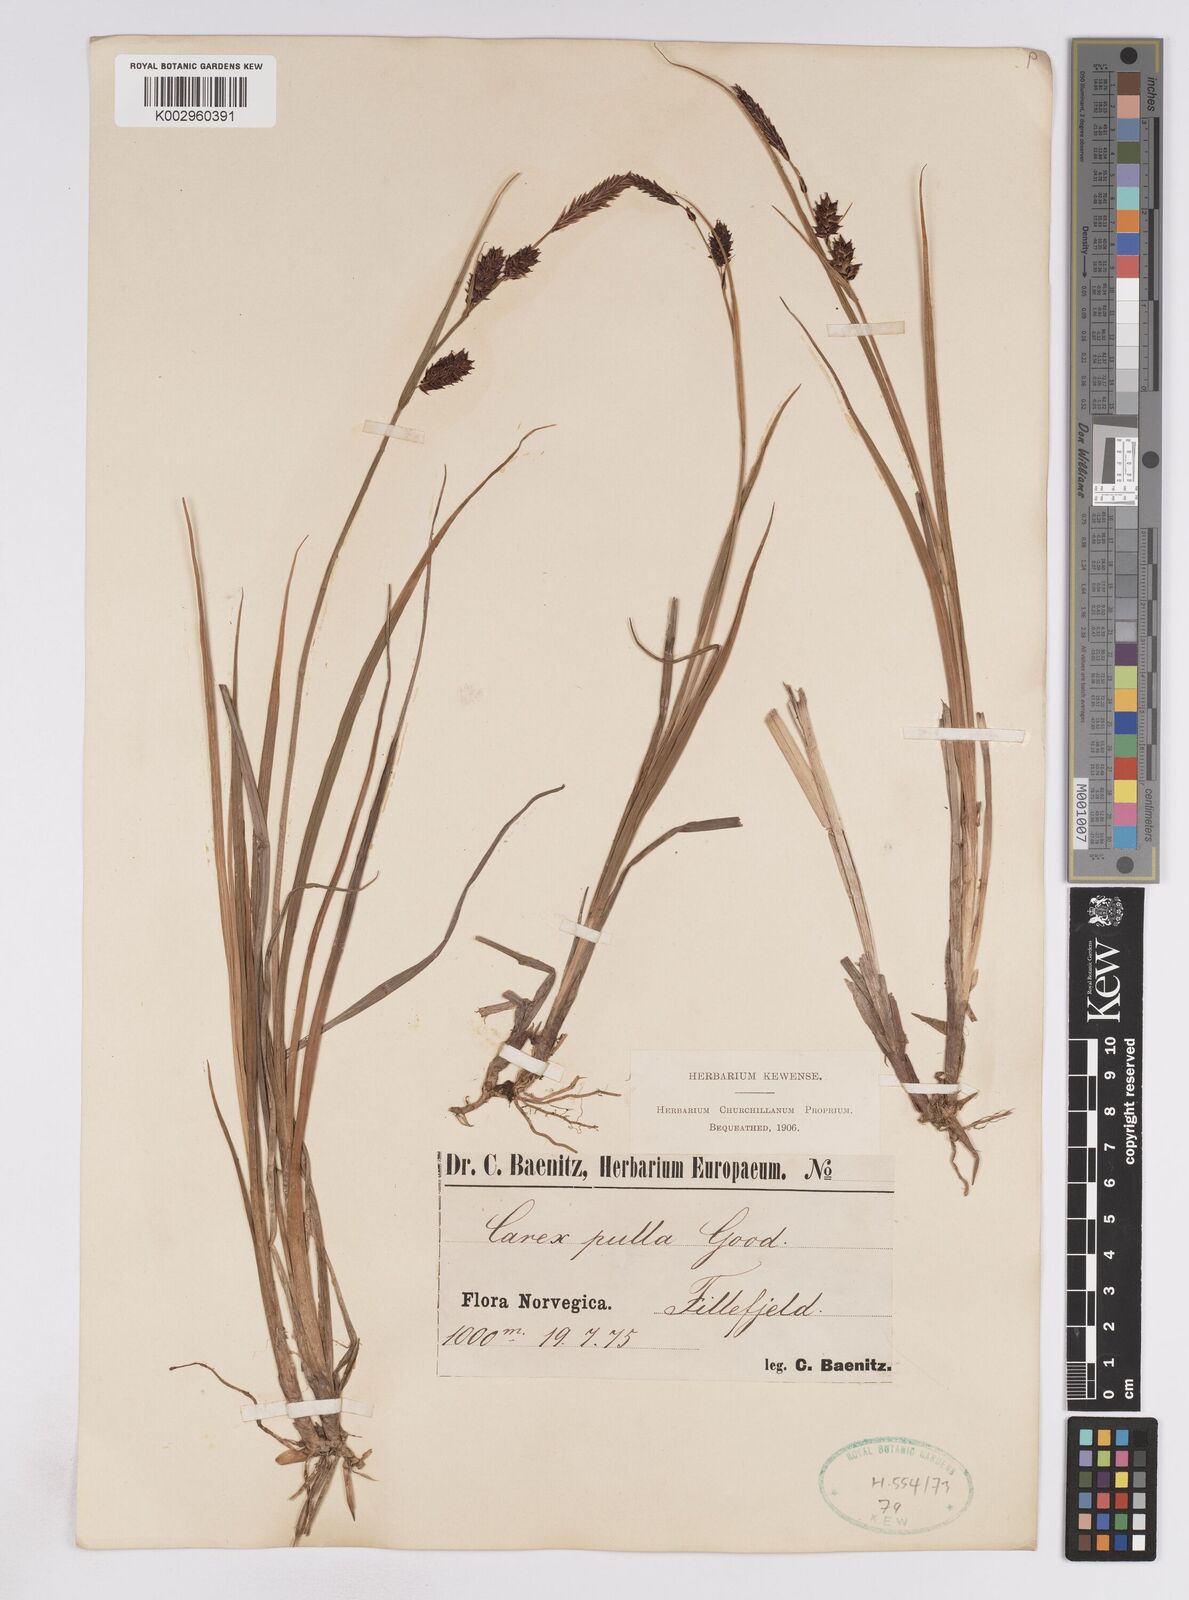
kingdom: Plantae
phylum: Tracheophyta
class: Liliopsida
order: Poales
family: Cyperaceae
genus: Carex
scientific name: Carex rostrata
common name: Bottle sedge
